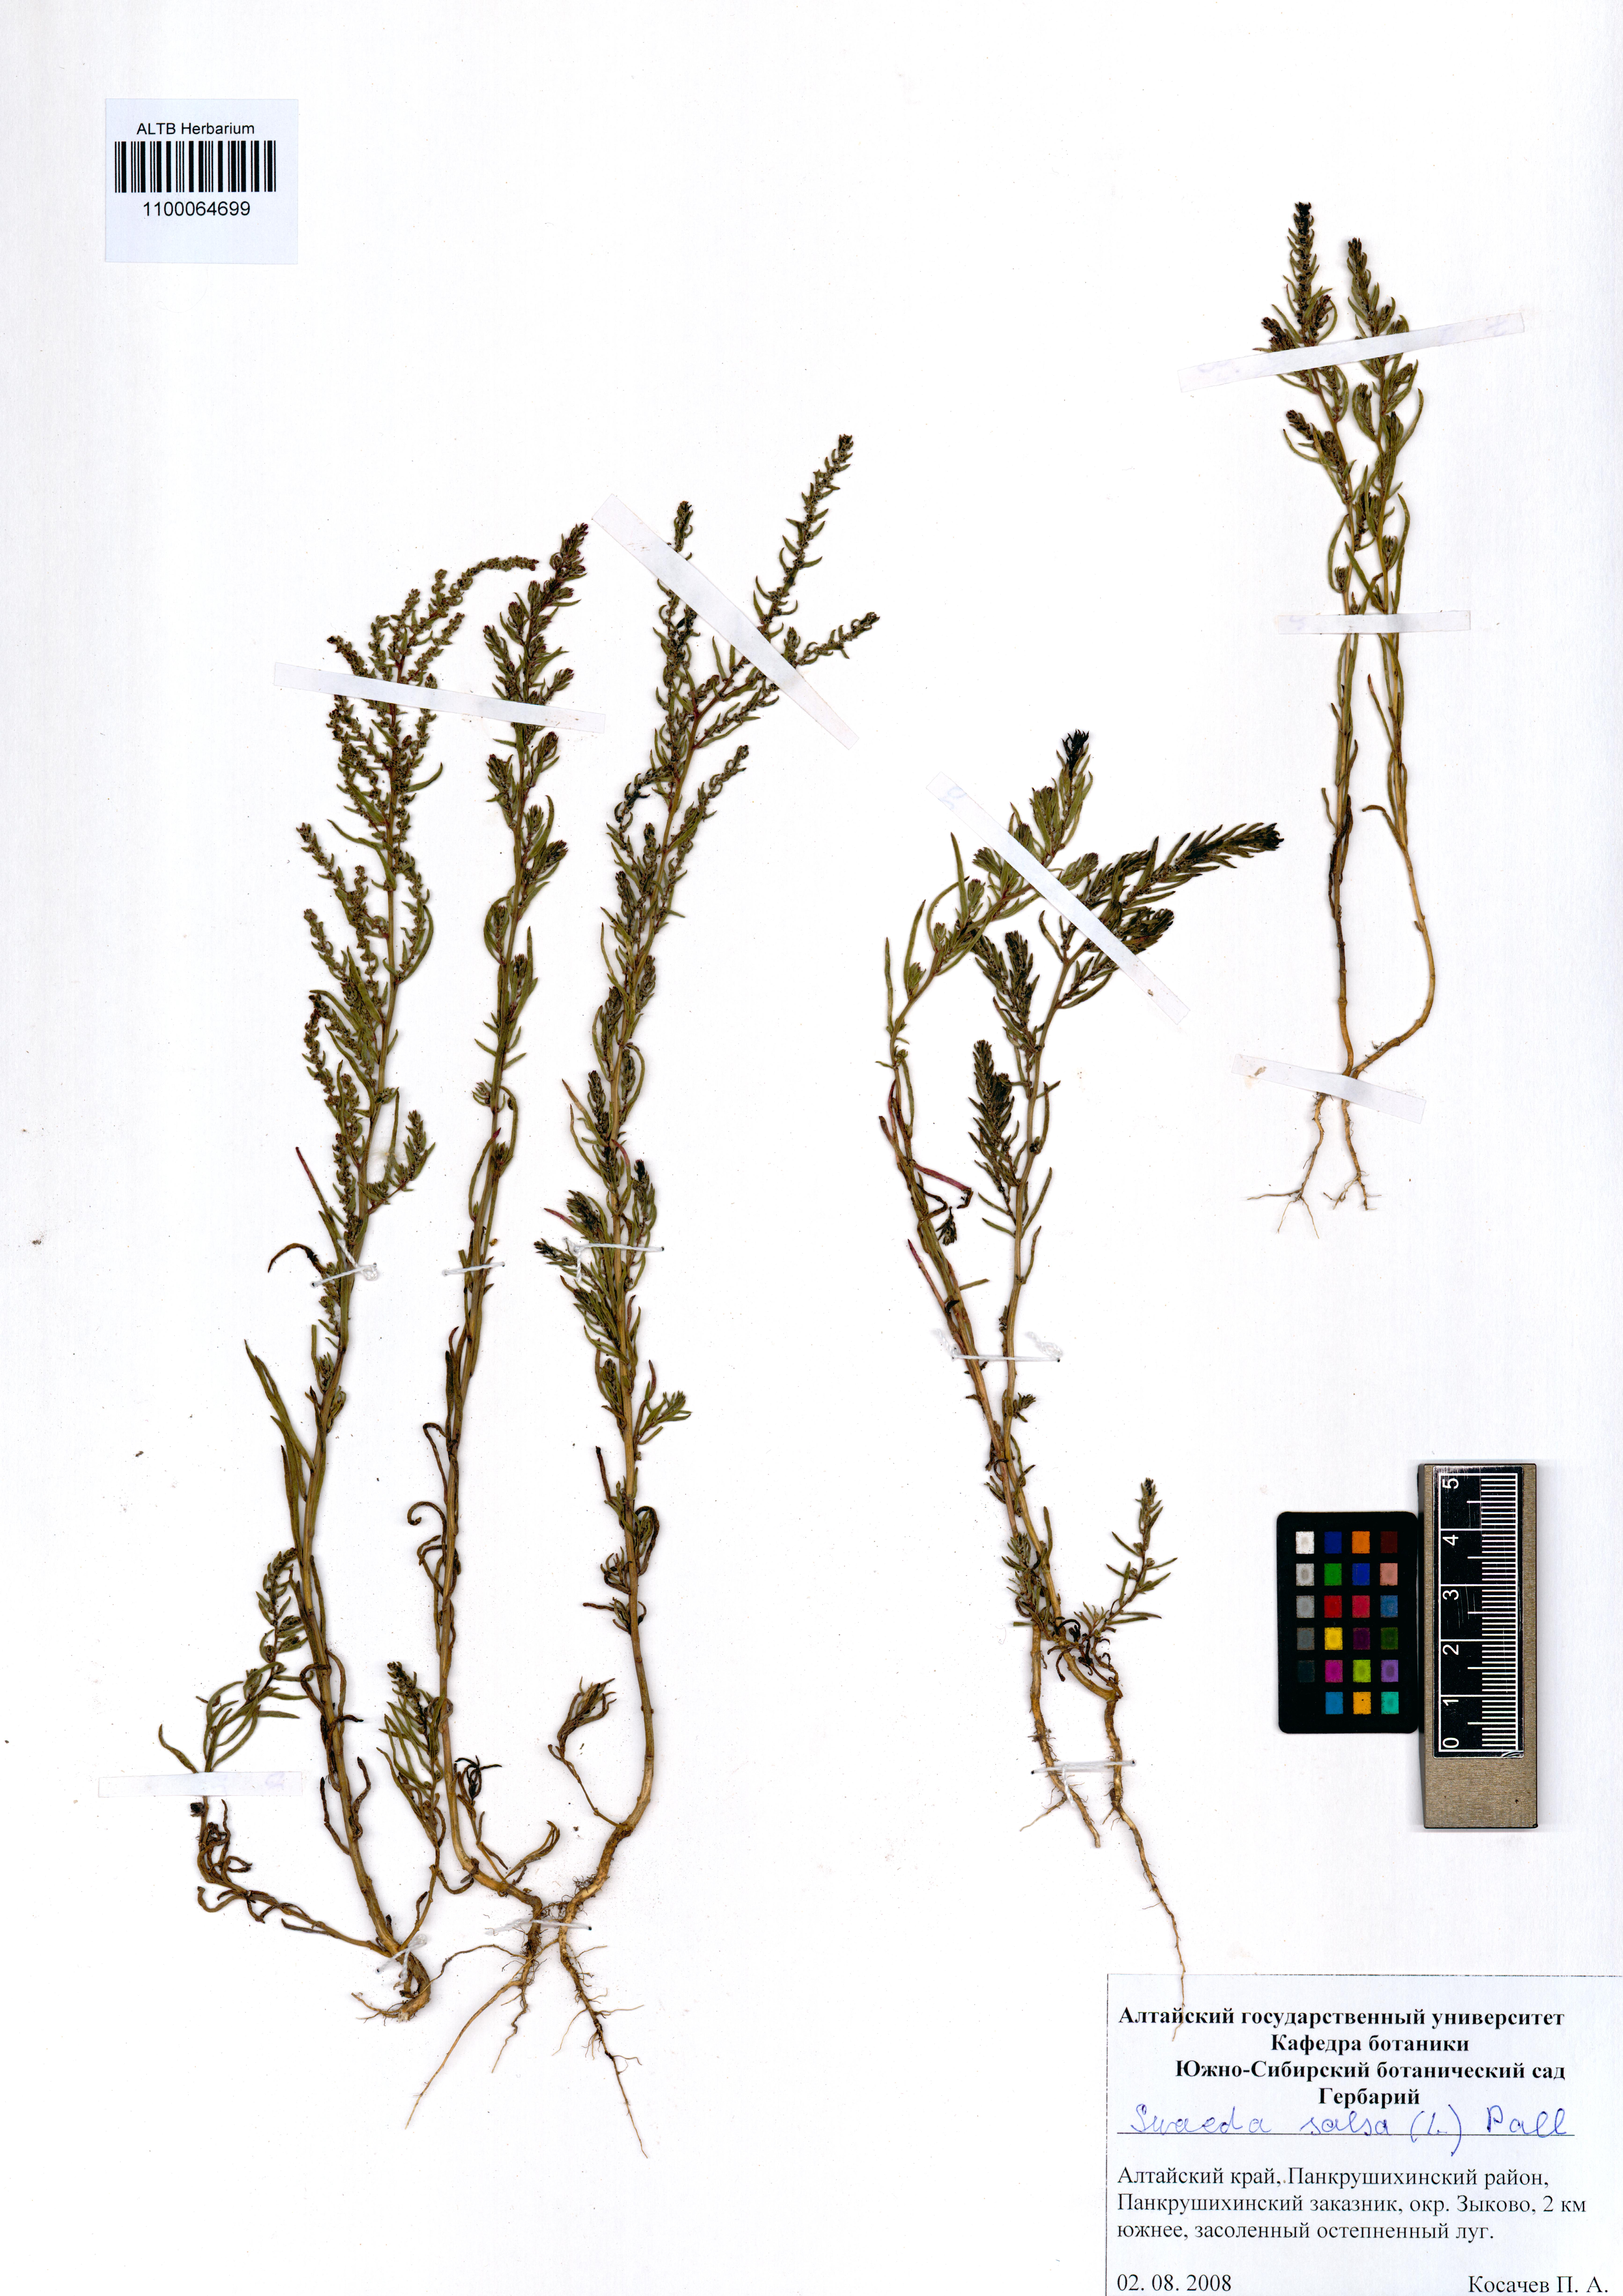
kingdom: Plantae
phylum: Tracheophyta
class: Magnoliopsida
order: Caryophyllales
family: Amaranthaceae
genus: Suaeda
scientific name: Suaeda salsa
